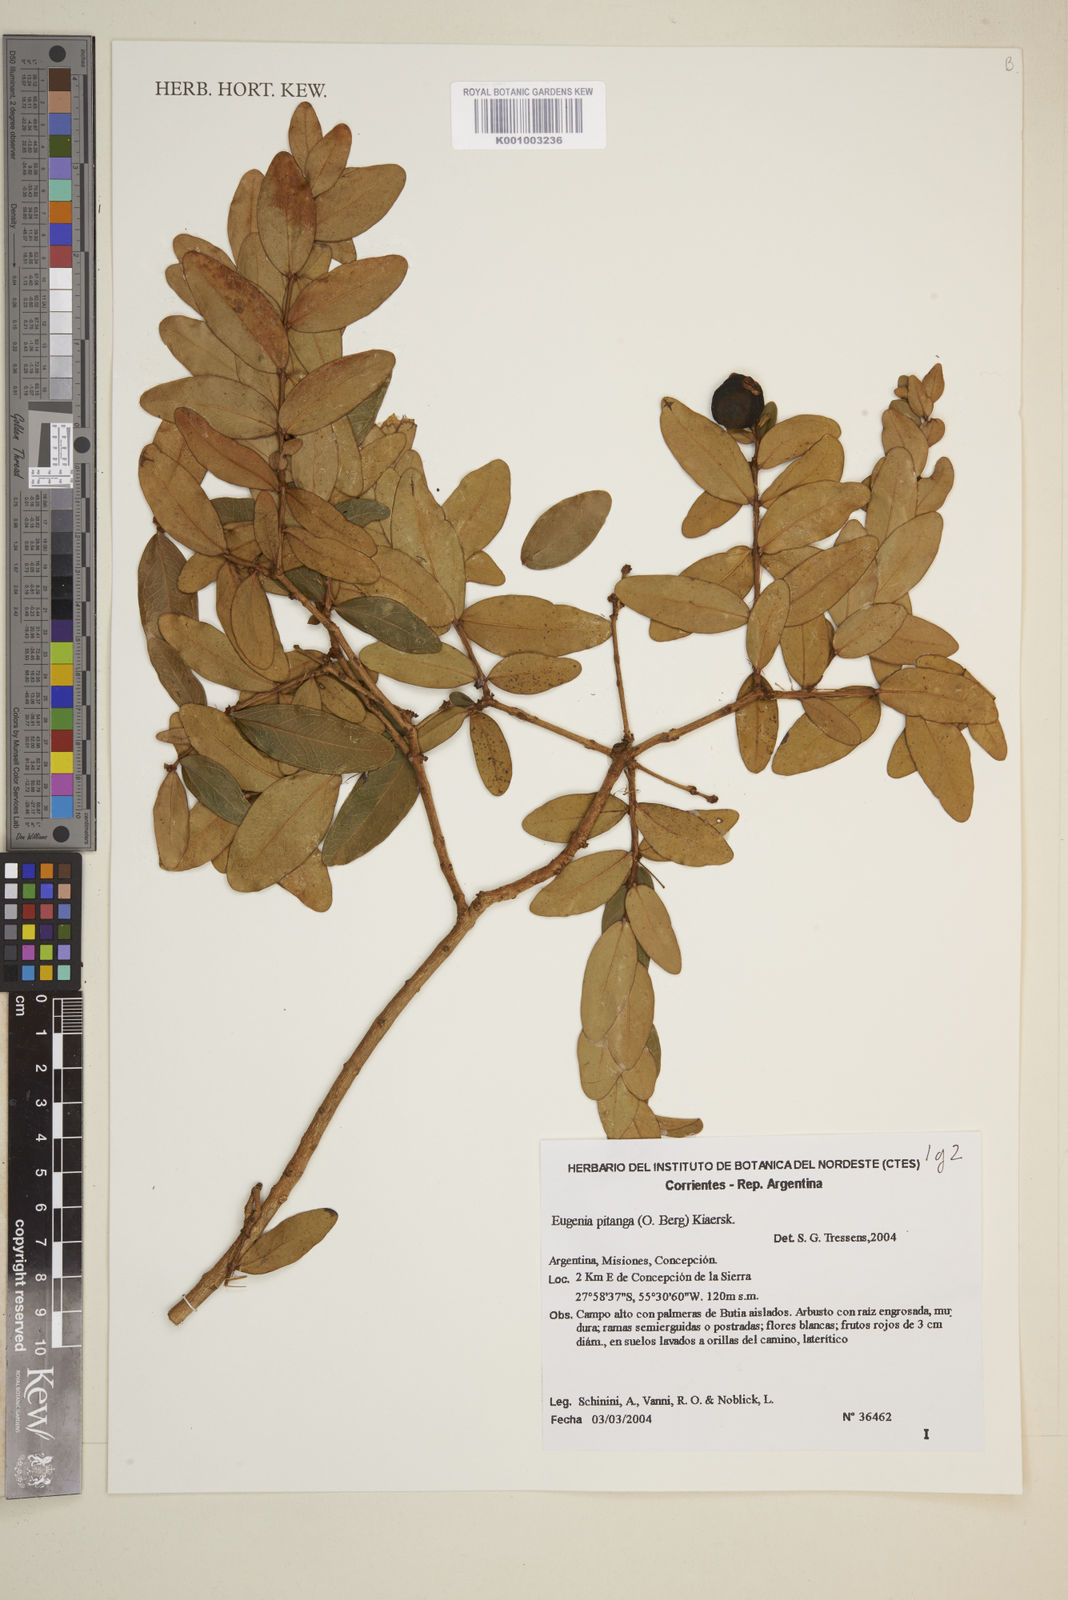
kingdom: Plantae
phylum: Tracheophyta
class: Magnoliopsida
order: Myrtales
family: Myrtaceae
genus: Eugenia
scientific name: Eugenia pitanga
